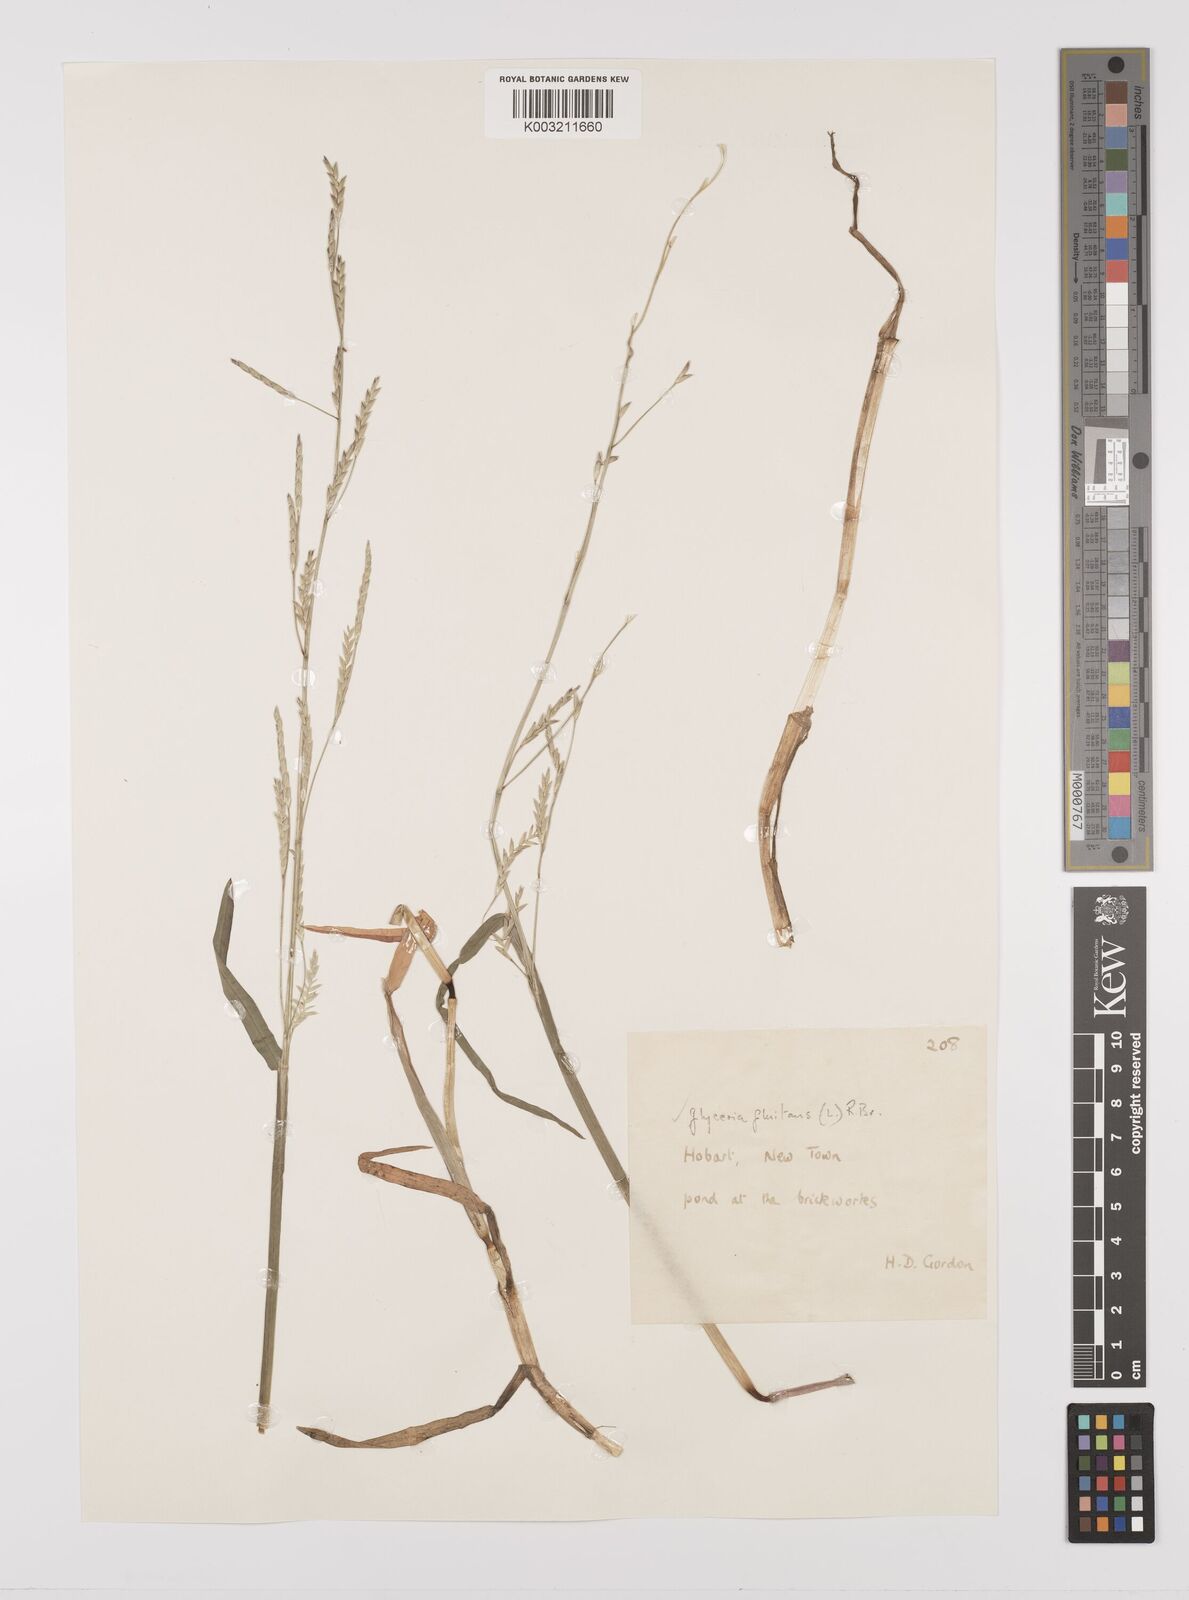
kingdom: Plantae
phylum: Tracheophyta
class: Liliopsida
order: Poales
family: Poaceae
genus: Glyceria
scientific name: Glyceria fluitans
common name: Floating sweet-grass
